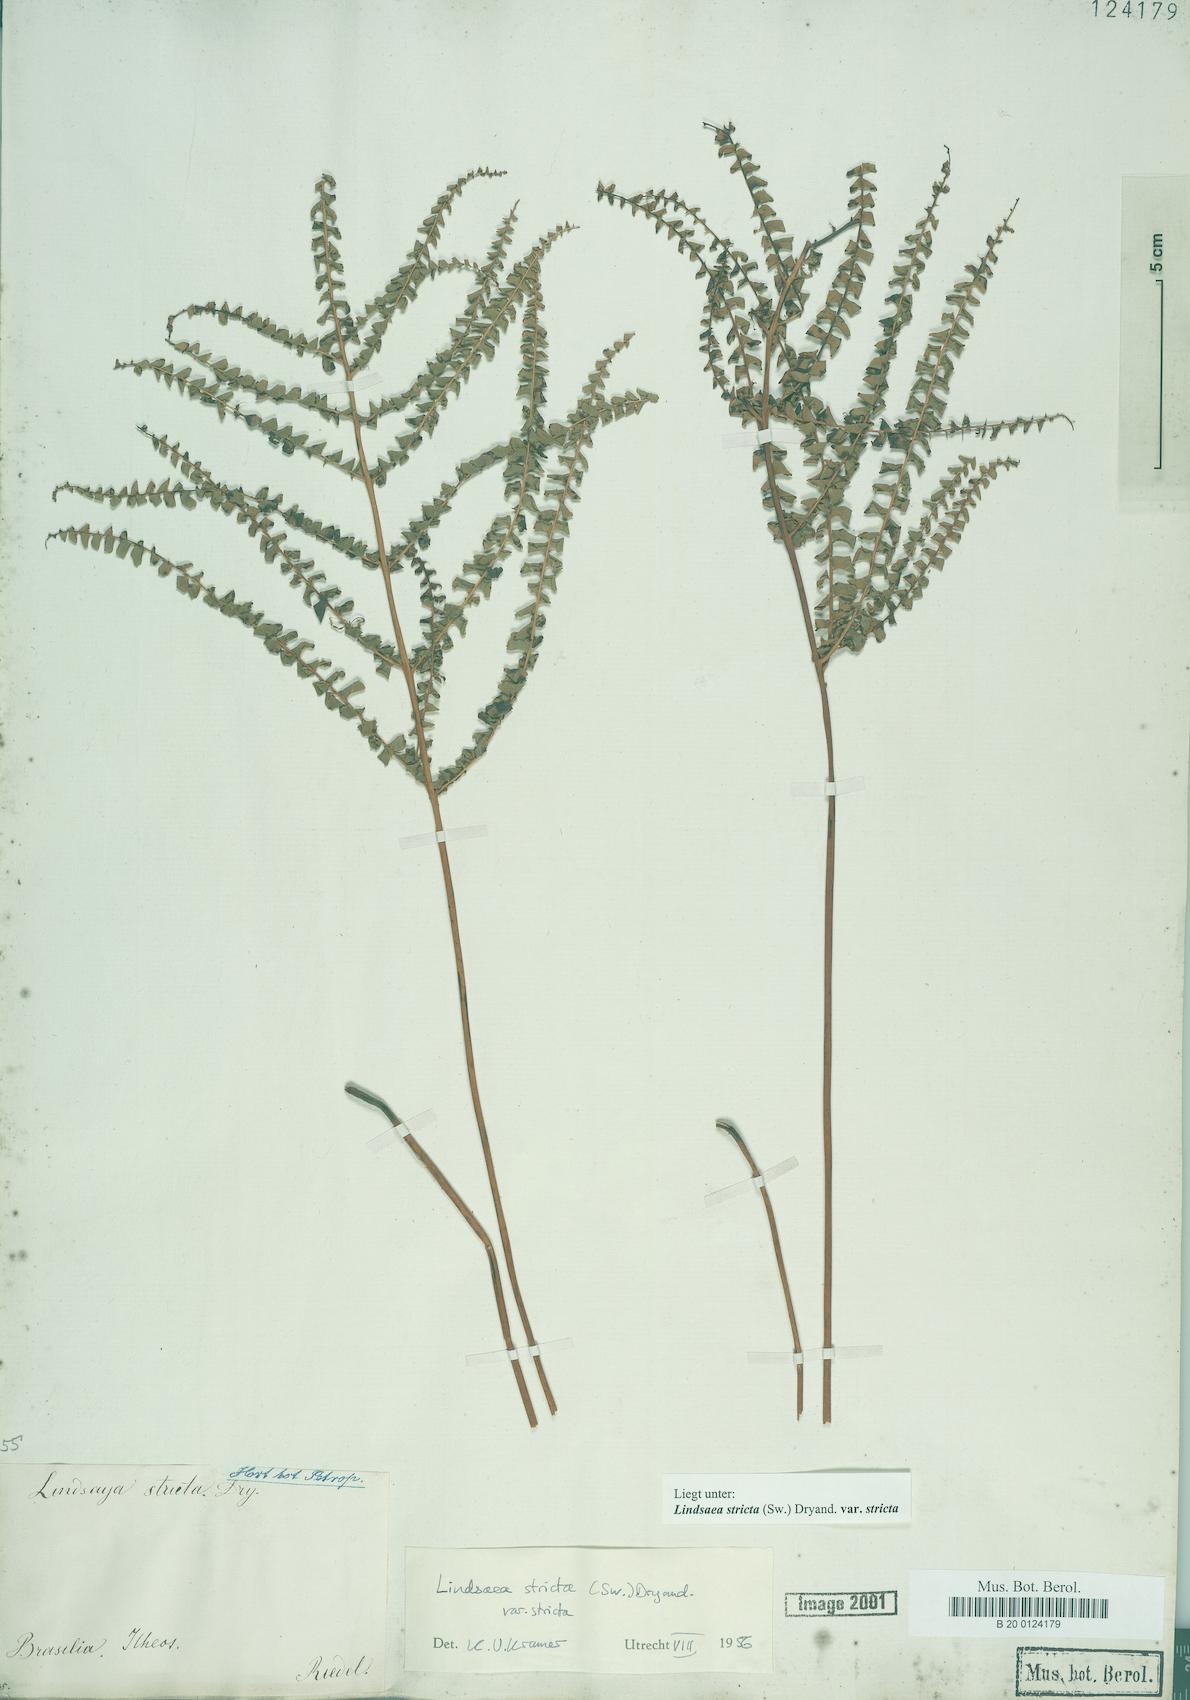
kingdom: Plantae
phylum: Tracheophyta
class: Polypodiopsida
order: Polypodiales
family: Lindsaeaceae
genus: Lindsaea
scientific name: Lindsaea stricta
